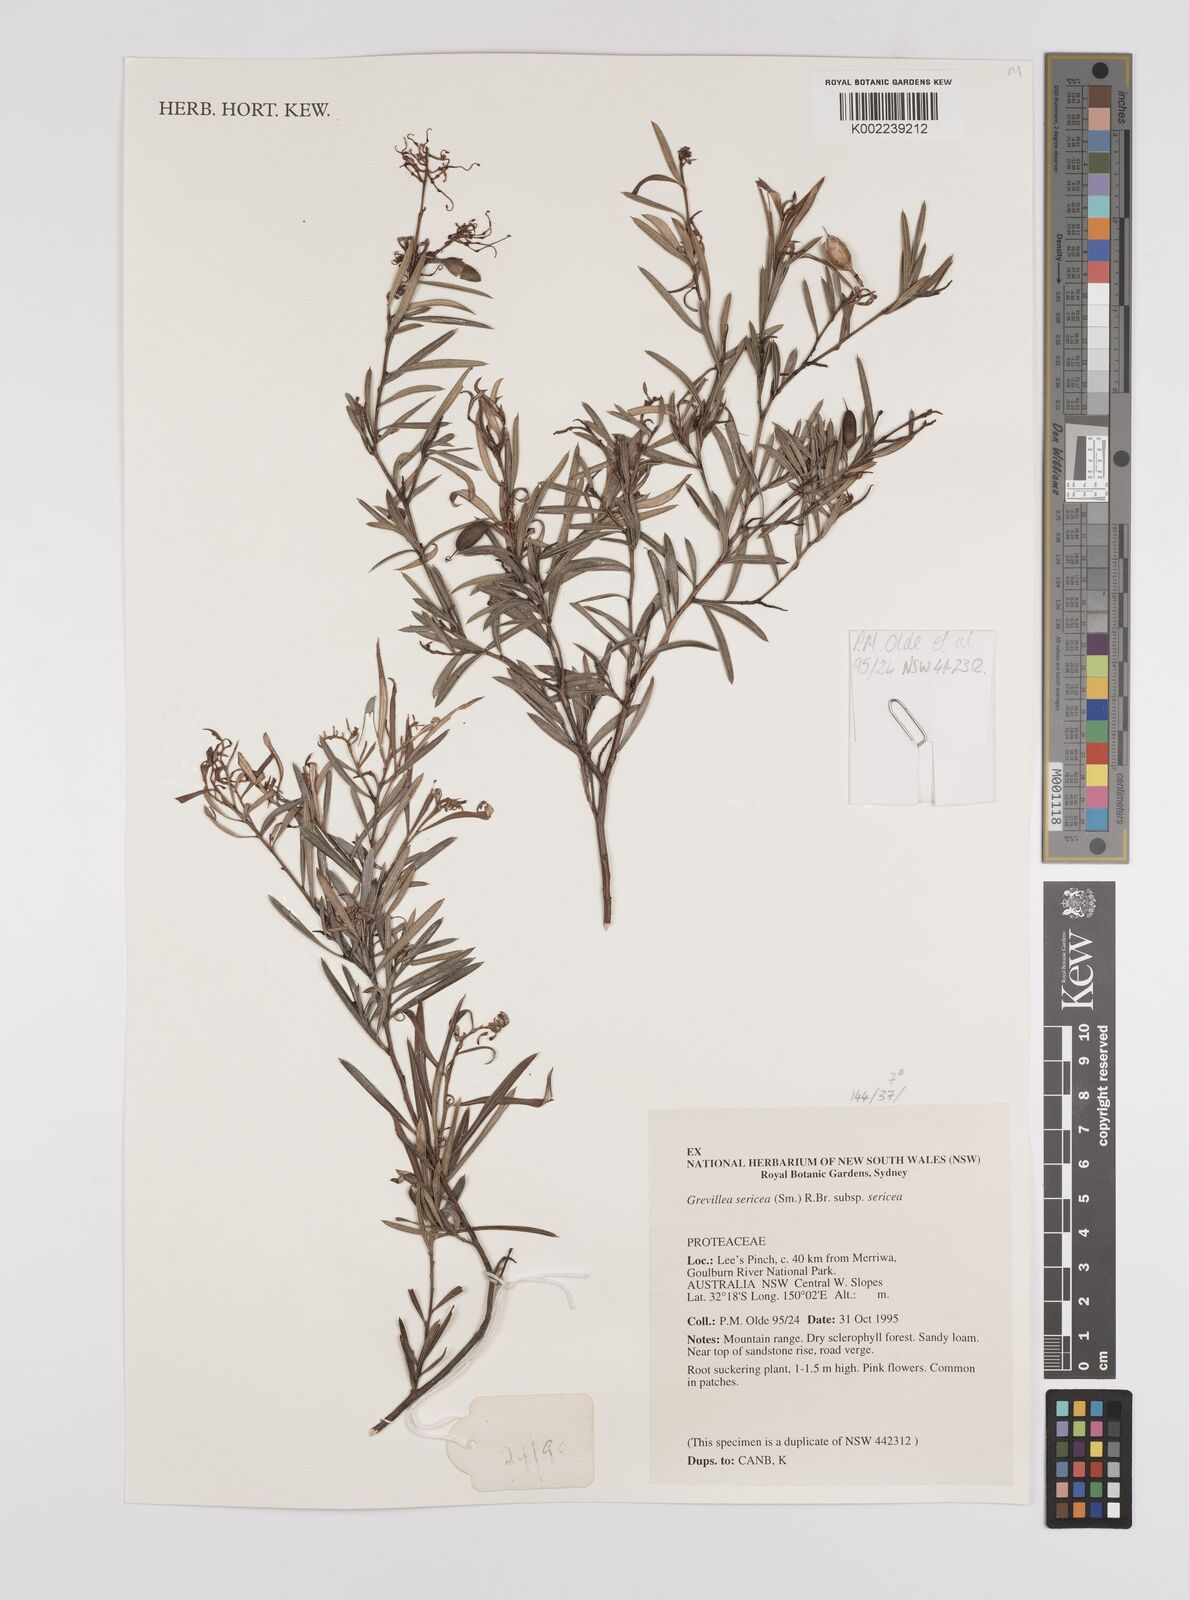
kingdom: Plantae
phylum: Tracheophyta
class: Magnoliopsida
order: Proteales
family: Proteaceae
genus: Grevillea
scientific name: Grevillea sericea
